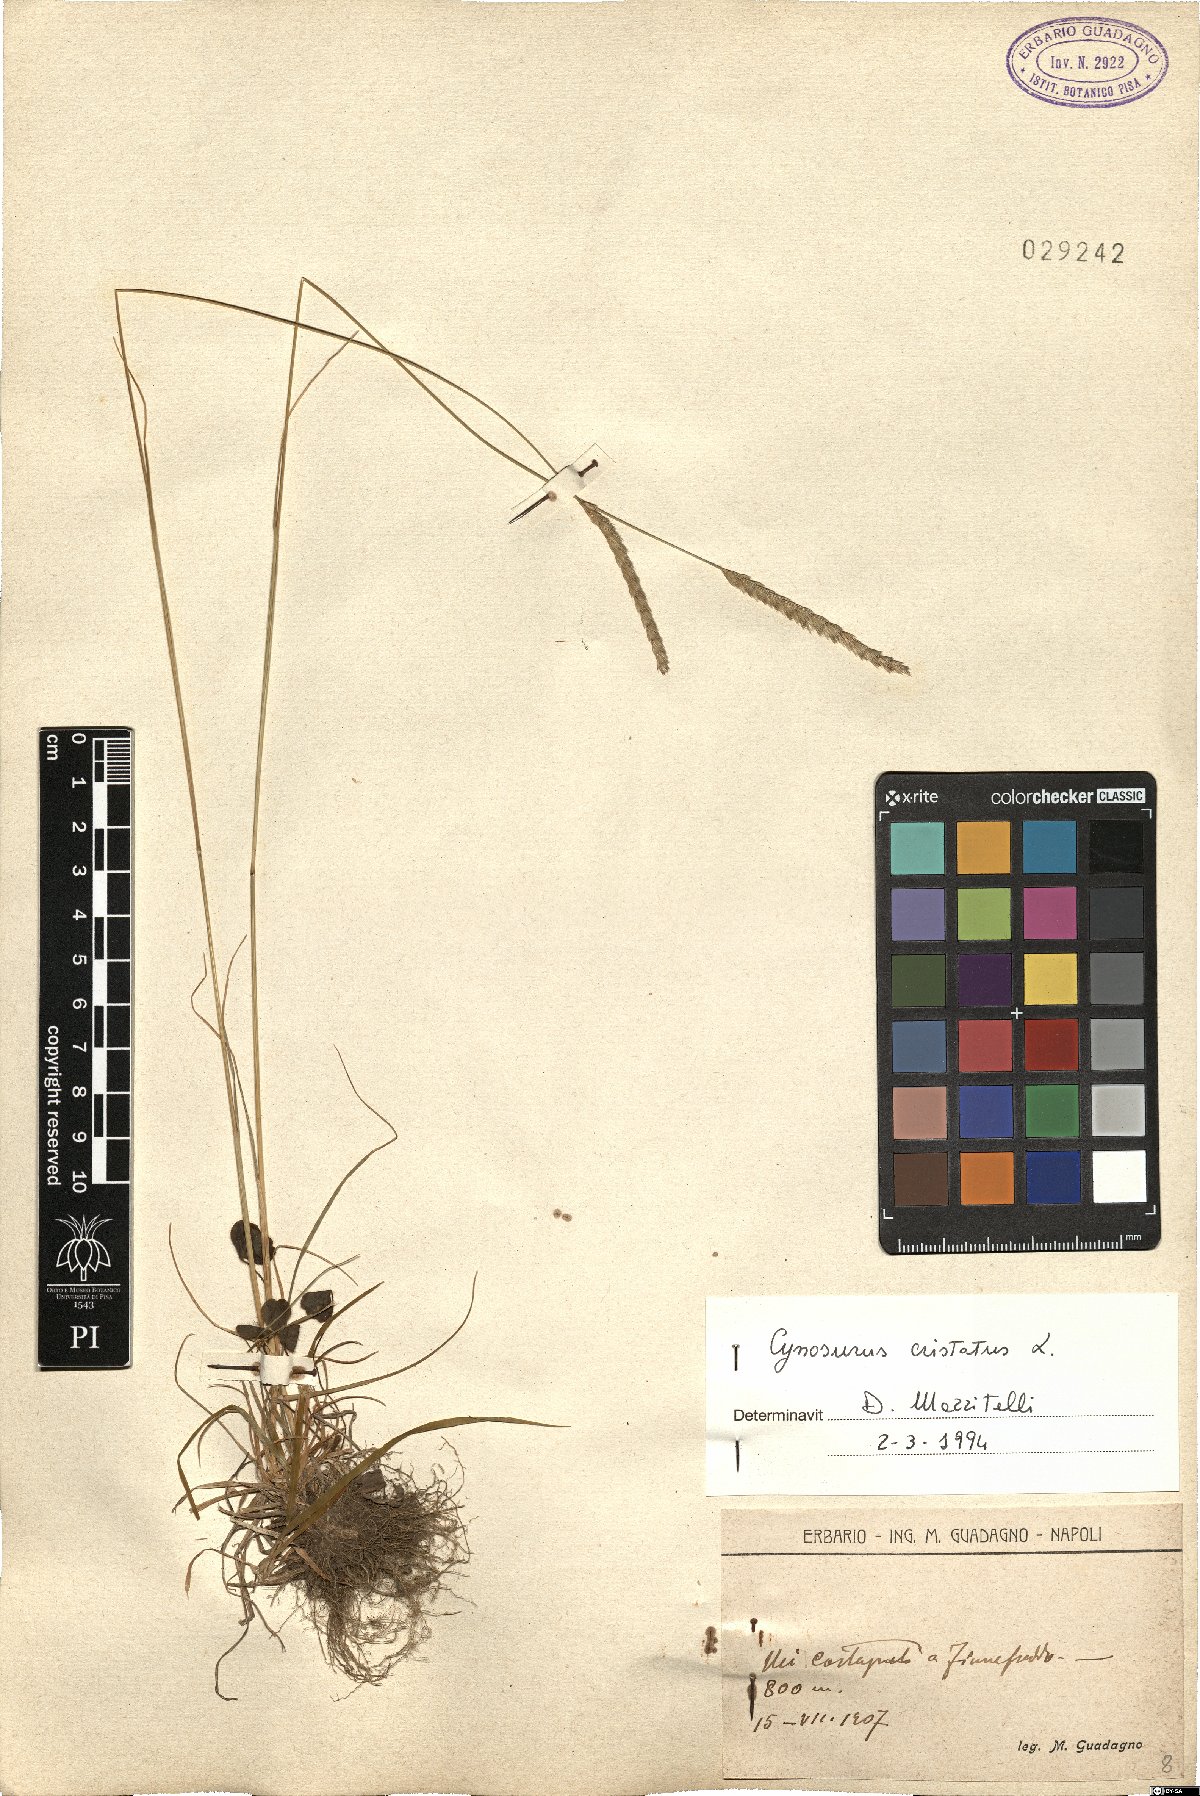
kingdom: Plantae
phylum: Tracheophyta
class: Liliopsida
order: Poales
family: Poaceae
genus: Cynosurus
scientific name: Cynosurus cristatus
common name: Crested dog's-tail
